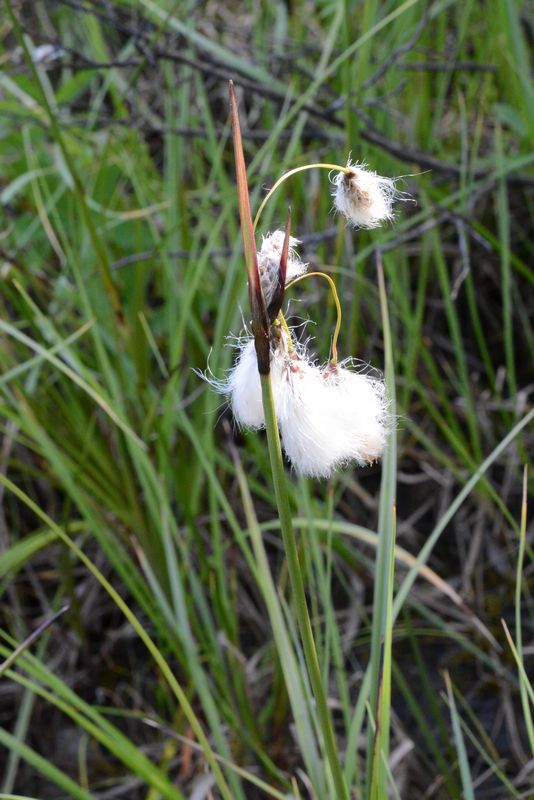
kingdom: Plantae
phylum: Tracheophyta
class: Liliopsida
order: Poales
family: Cyperaceae
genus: Eriophorum
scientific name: Eriophorum angustifolium
